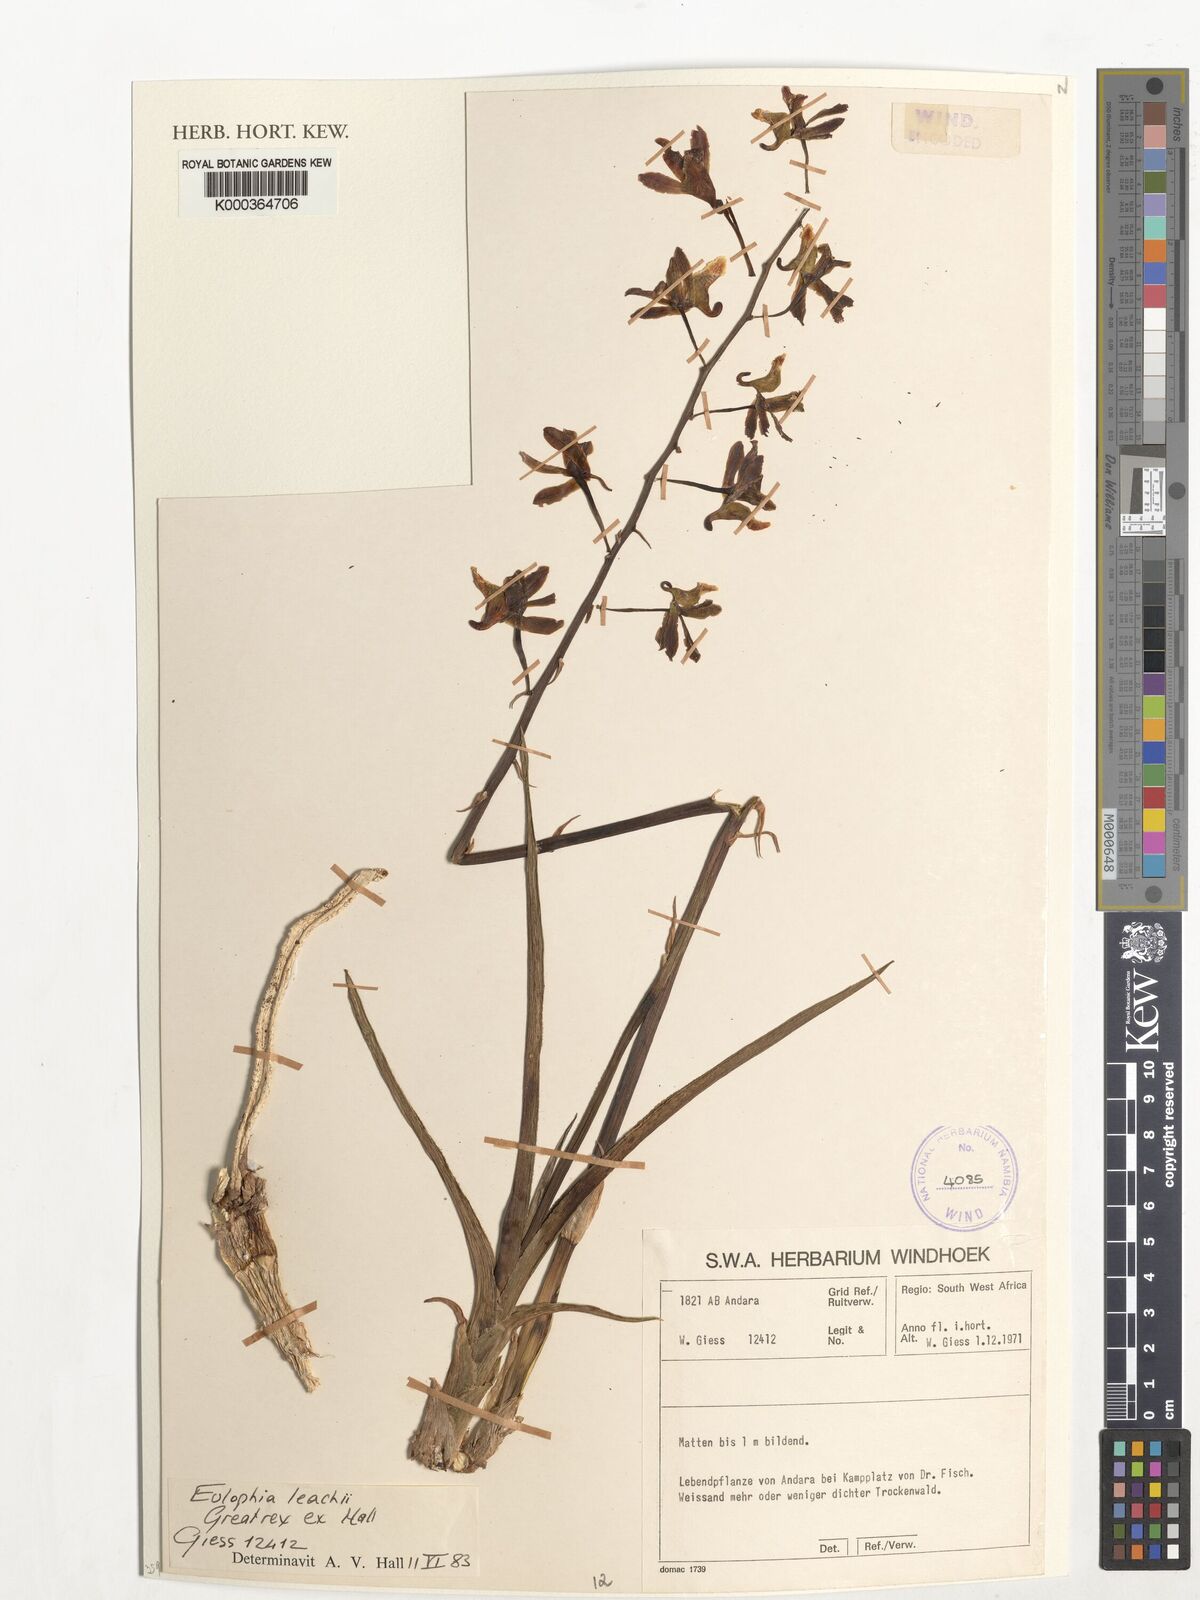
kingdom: Plantae
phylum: Tracheophyta
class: Liliopsida
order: Asparagales
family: Orchidaceae
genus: Eulophia
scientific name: Eulophia leachii
